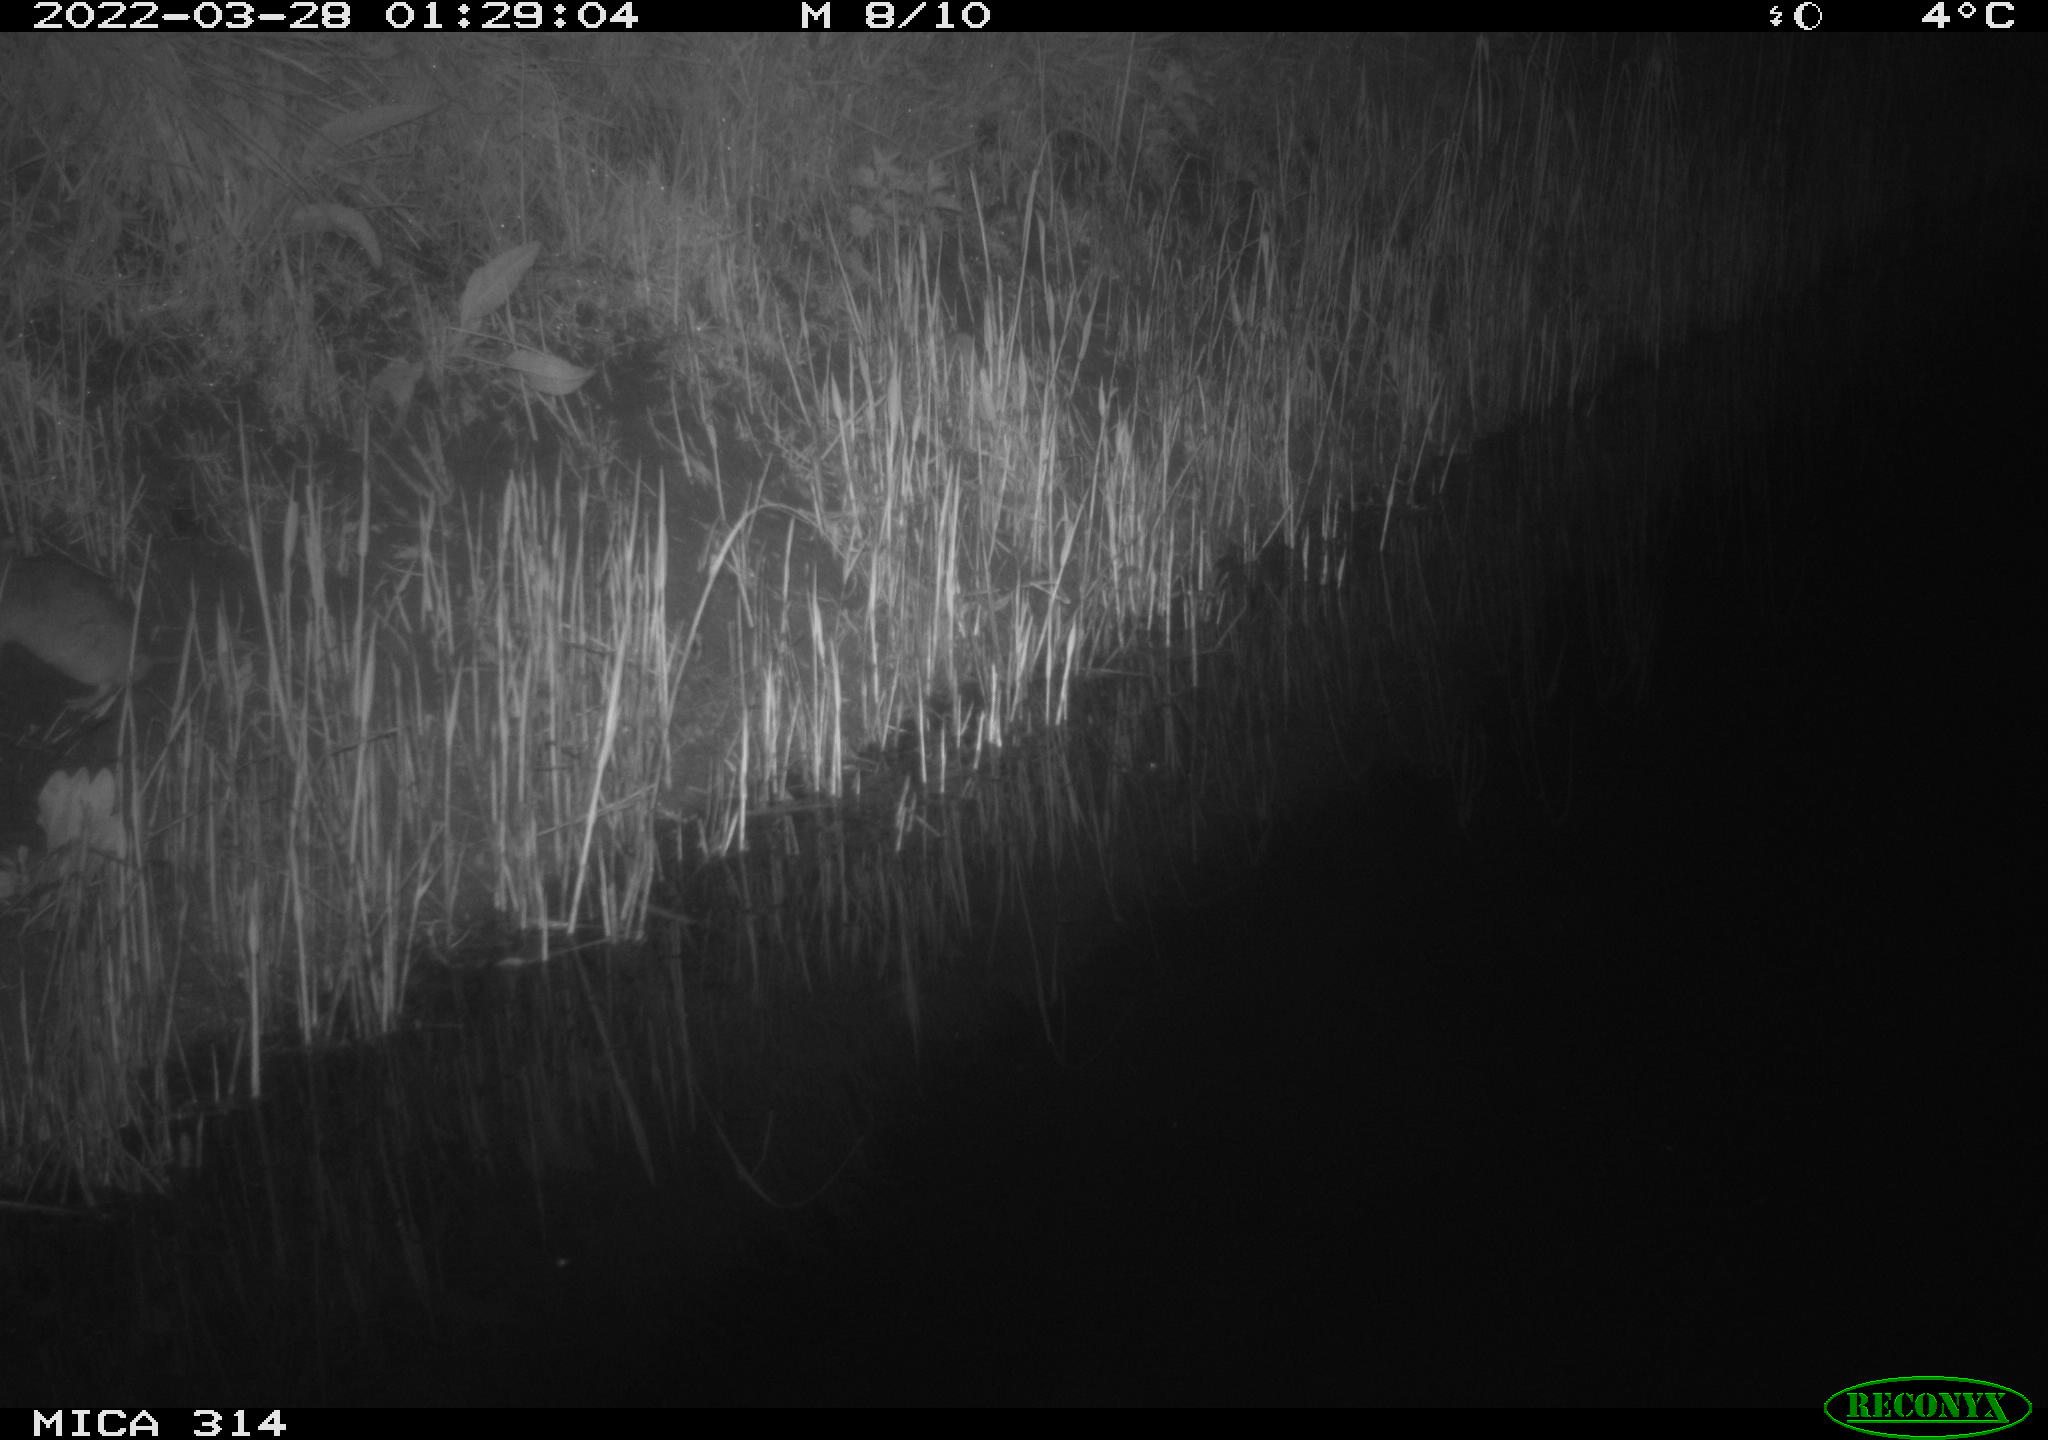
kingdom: Animalia
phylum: Chordata
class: Mammalia
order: Rodentia
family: Muridae
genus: Rattus
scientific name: Rattus norvegicus
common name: Brown rat
